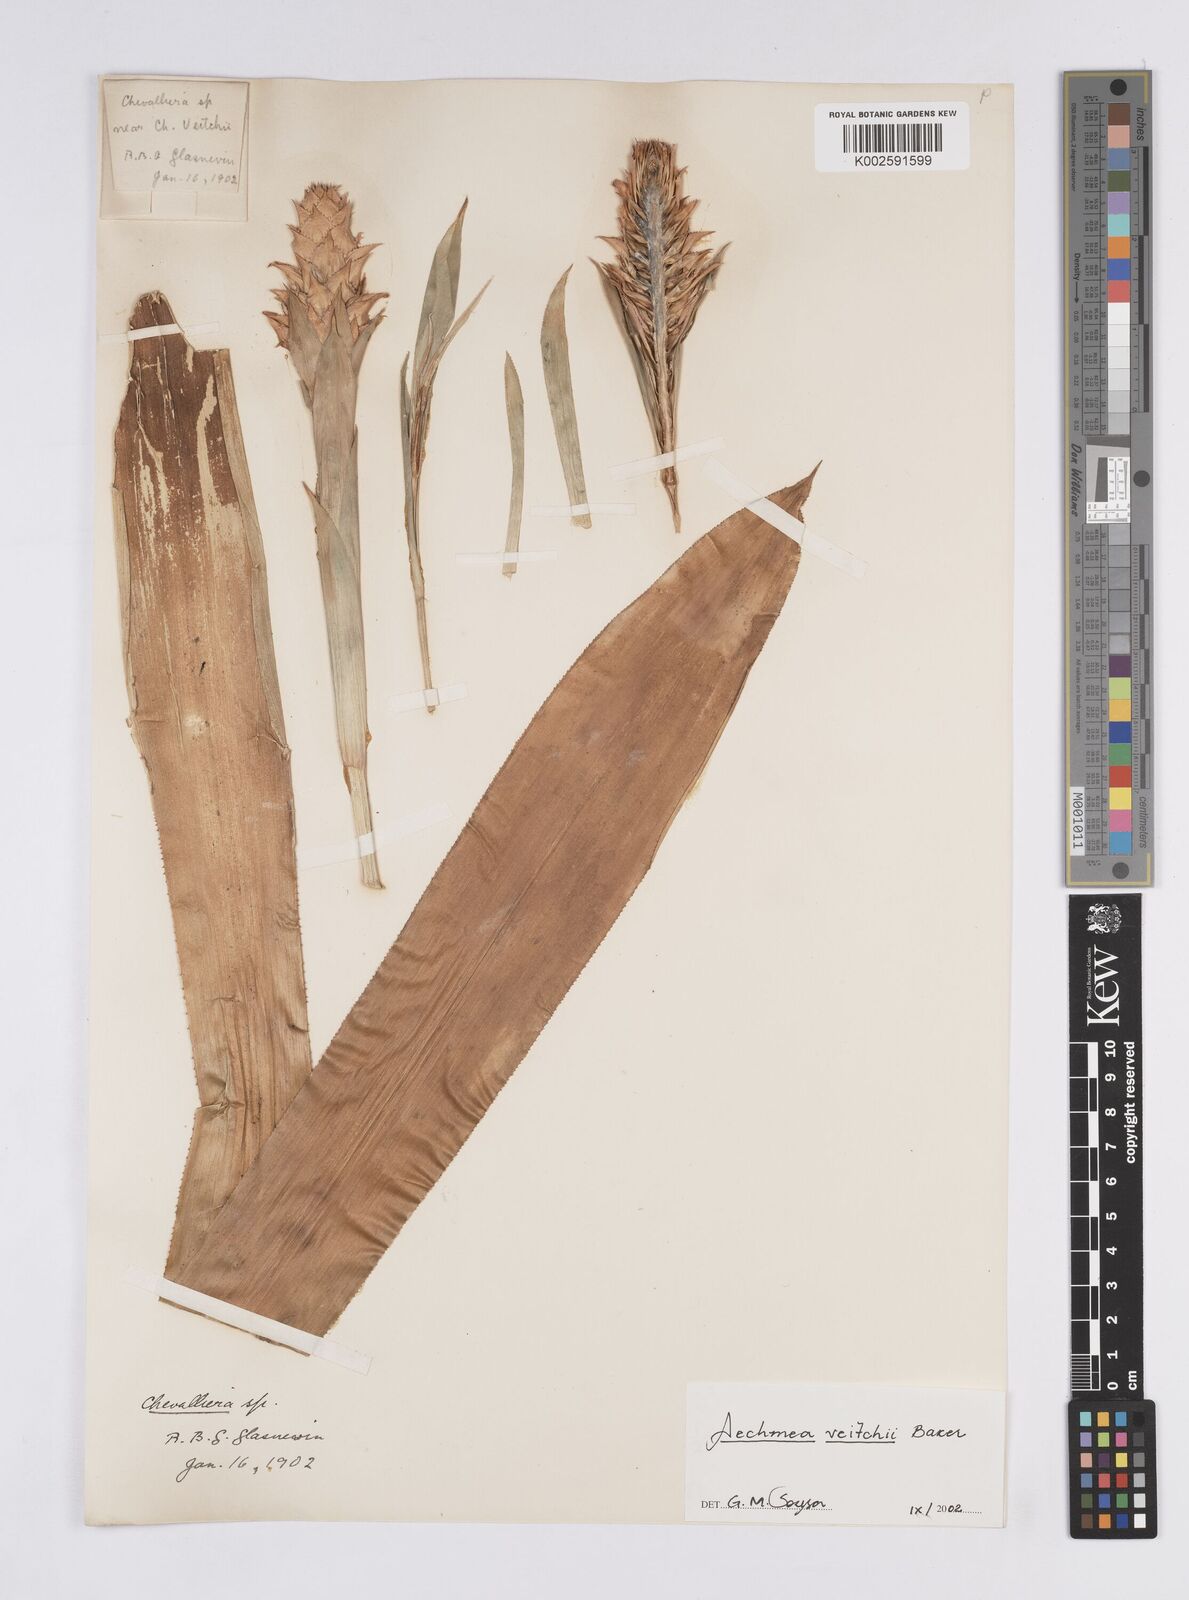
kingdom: Plantae
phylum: Tracheophyta
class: Liliopsida
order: Poales
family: Bromeliaceae
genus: Ronnbergia
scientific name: Ronnbergia veitchii
